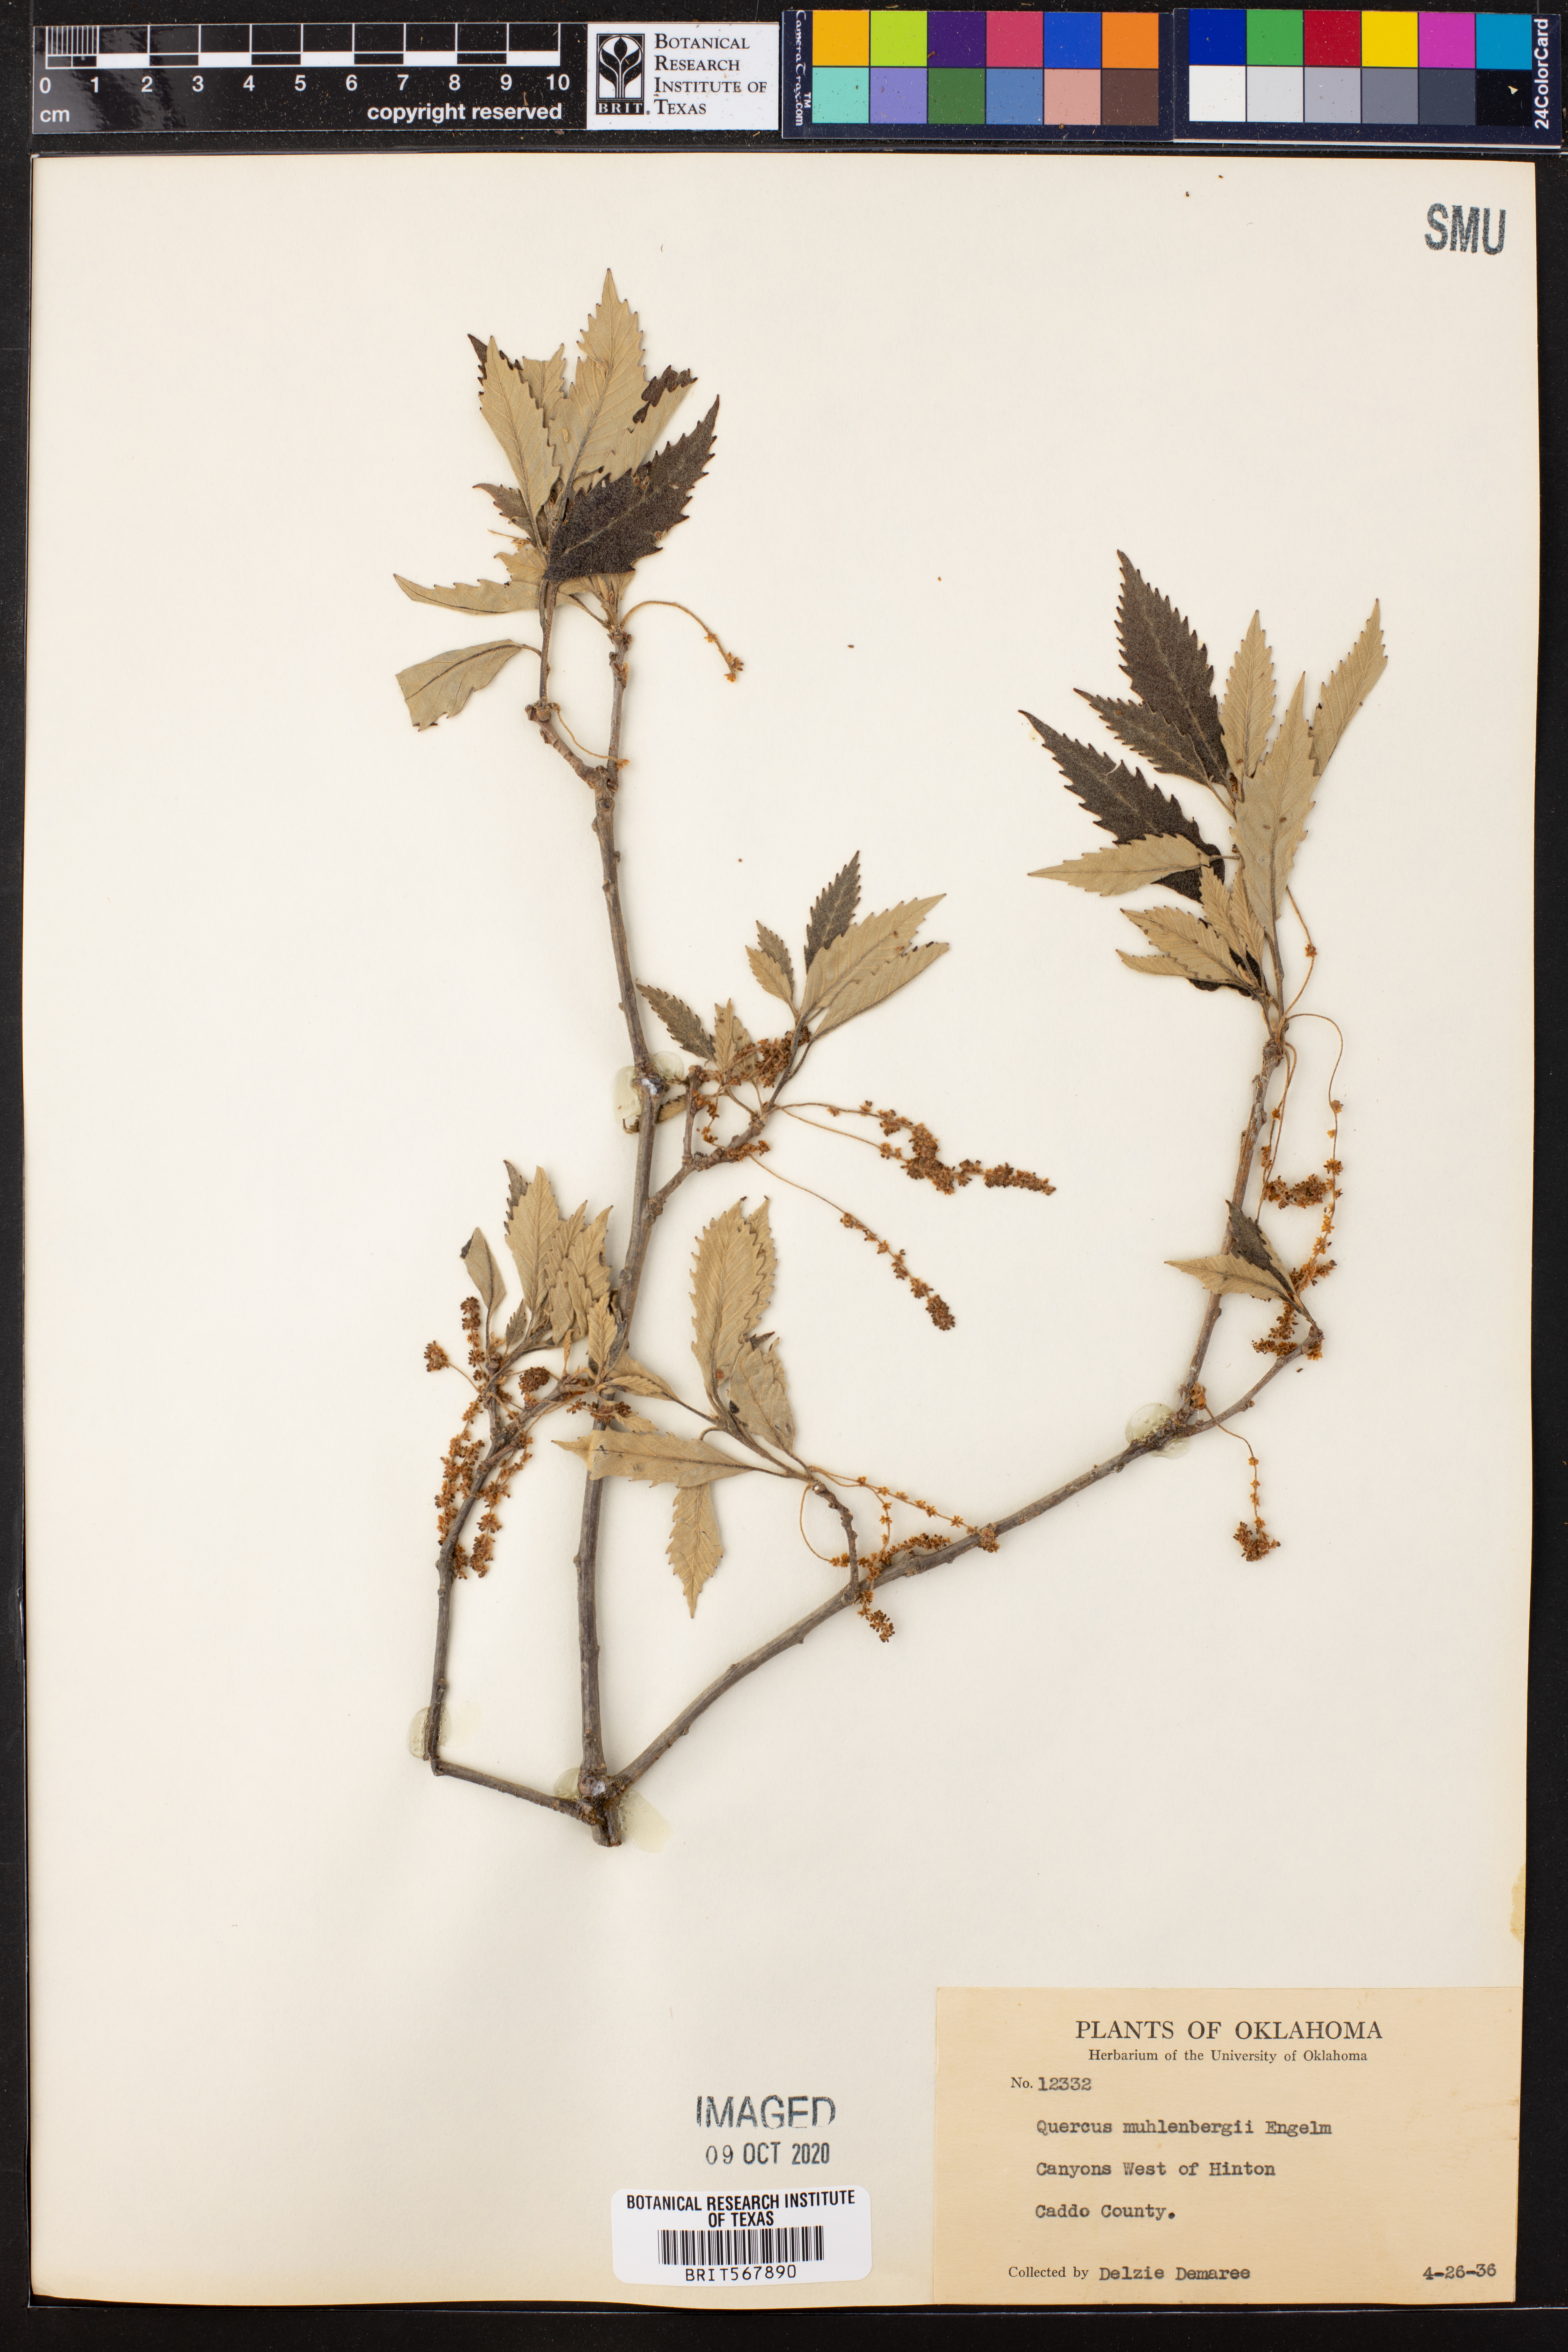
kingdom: Plantae
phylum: Tracheophyta
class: Magnoliopsida
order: Fagales
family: Fagaceae
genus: Quercus
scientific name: Quercus muehlenbergii
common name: Chinkapin oak
